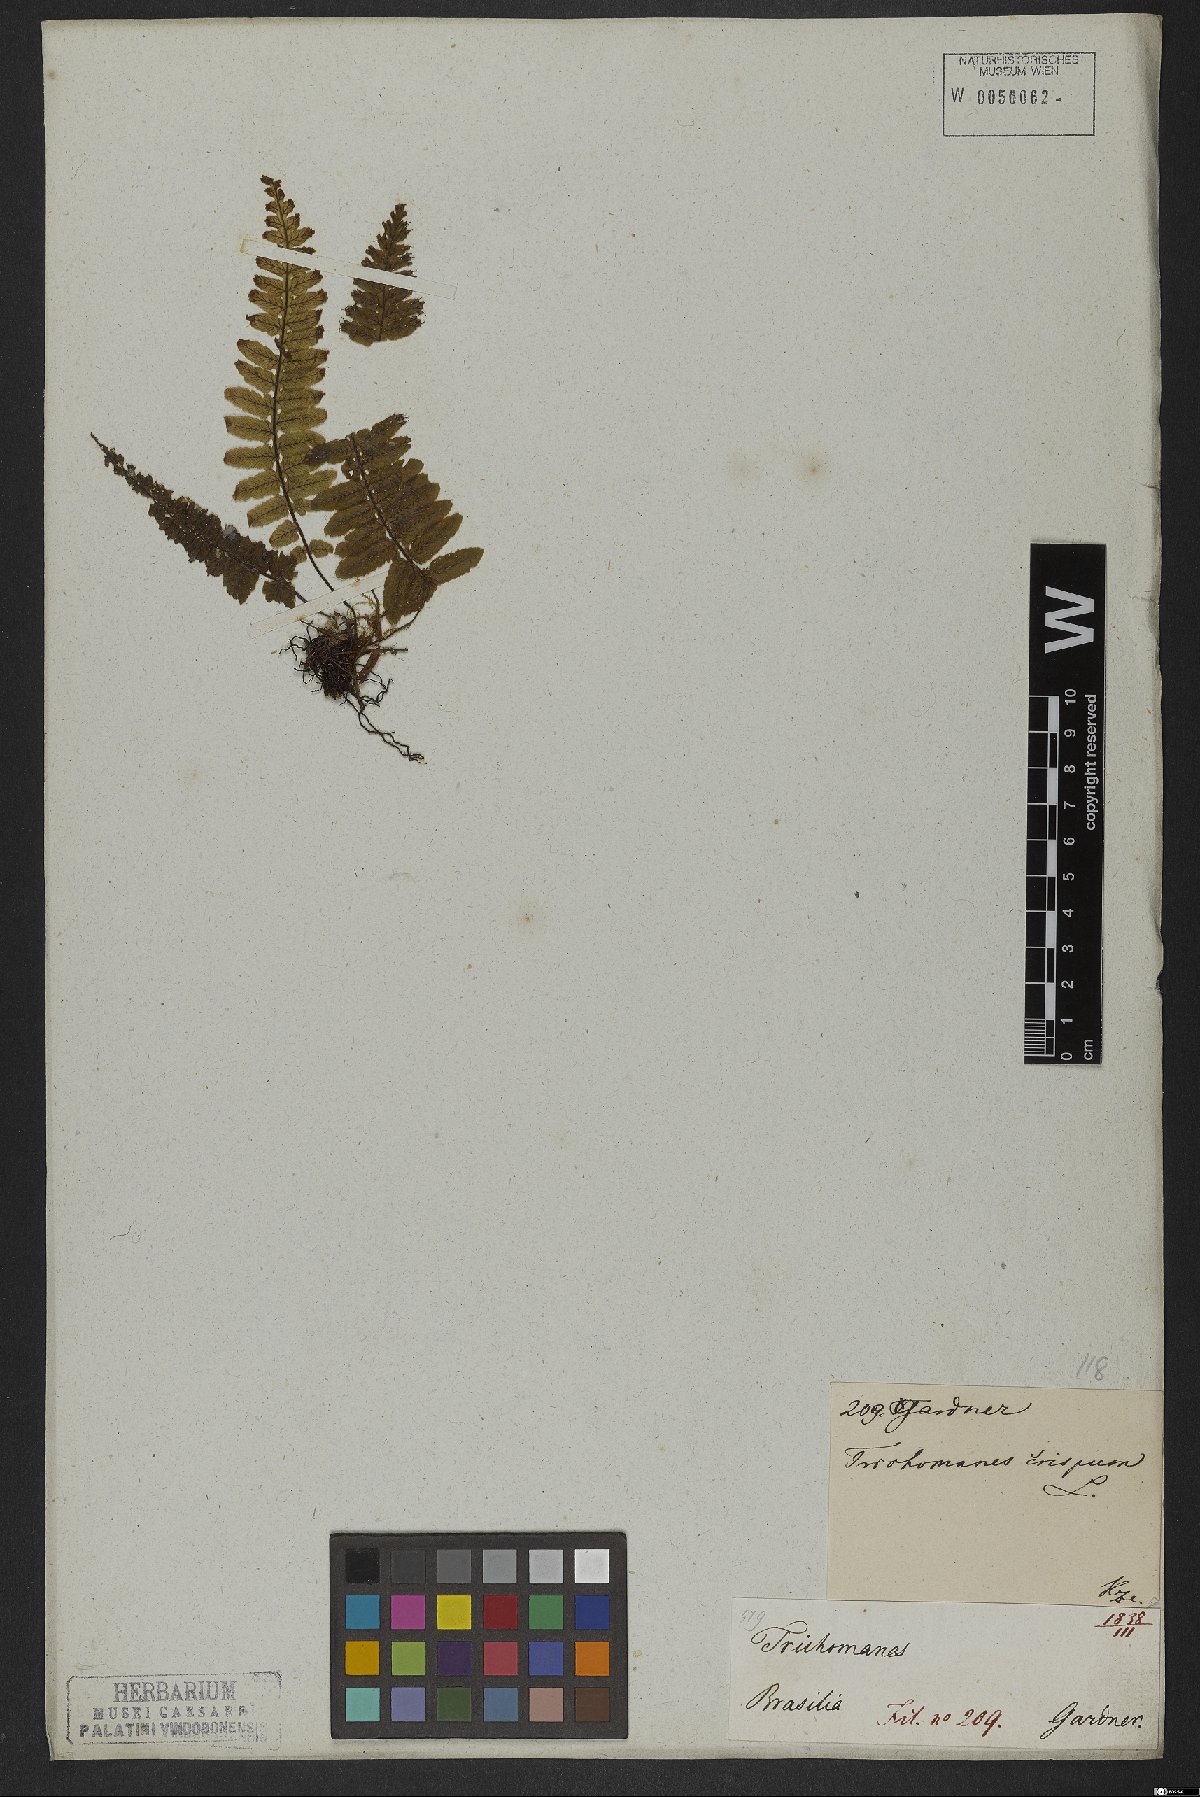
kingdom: Plantae
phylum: Tracheophyta
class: Polypodiopsida
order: Hymenophyllales
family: Hymenophyllaceae
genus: Trichomanes
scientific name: Trichomanes crispum
